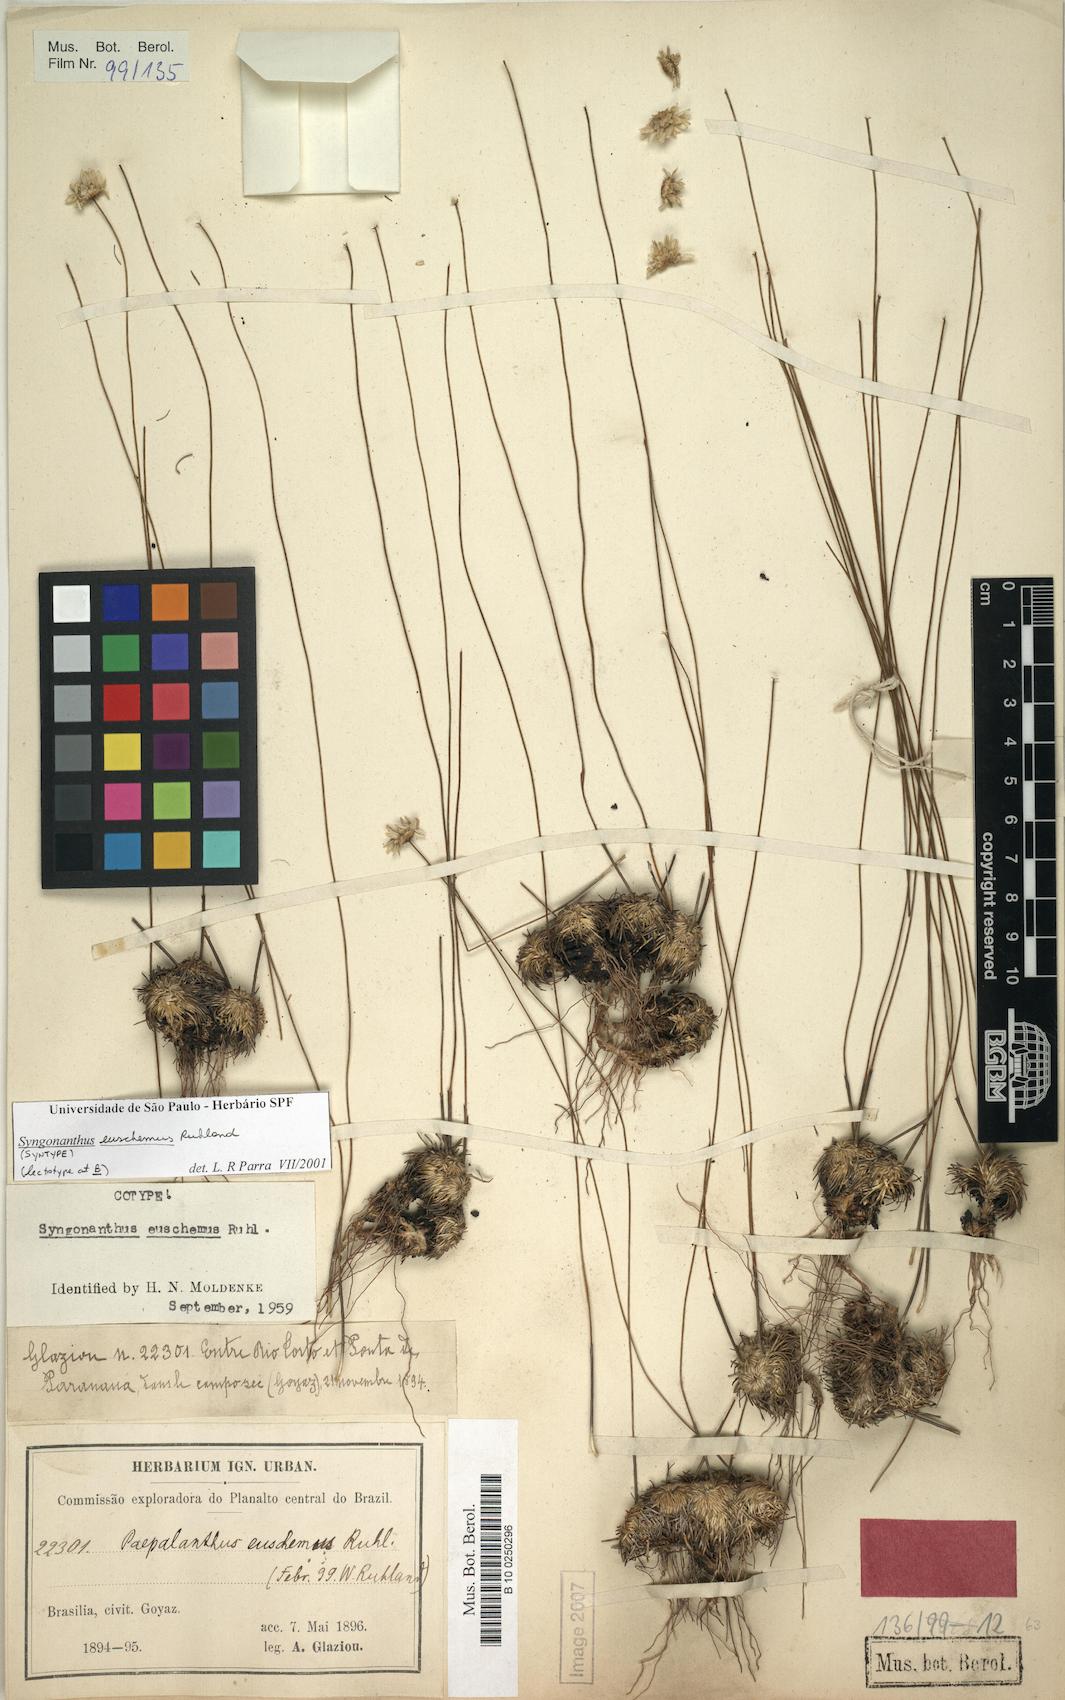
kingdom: Plantae
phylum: Tracheophyta
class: Liliopsida
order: Poales
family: Eriocaulaceae
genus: Comanthera
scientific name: Comanthera euschemus
